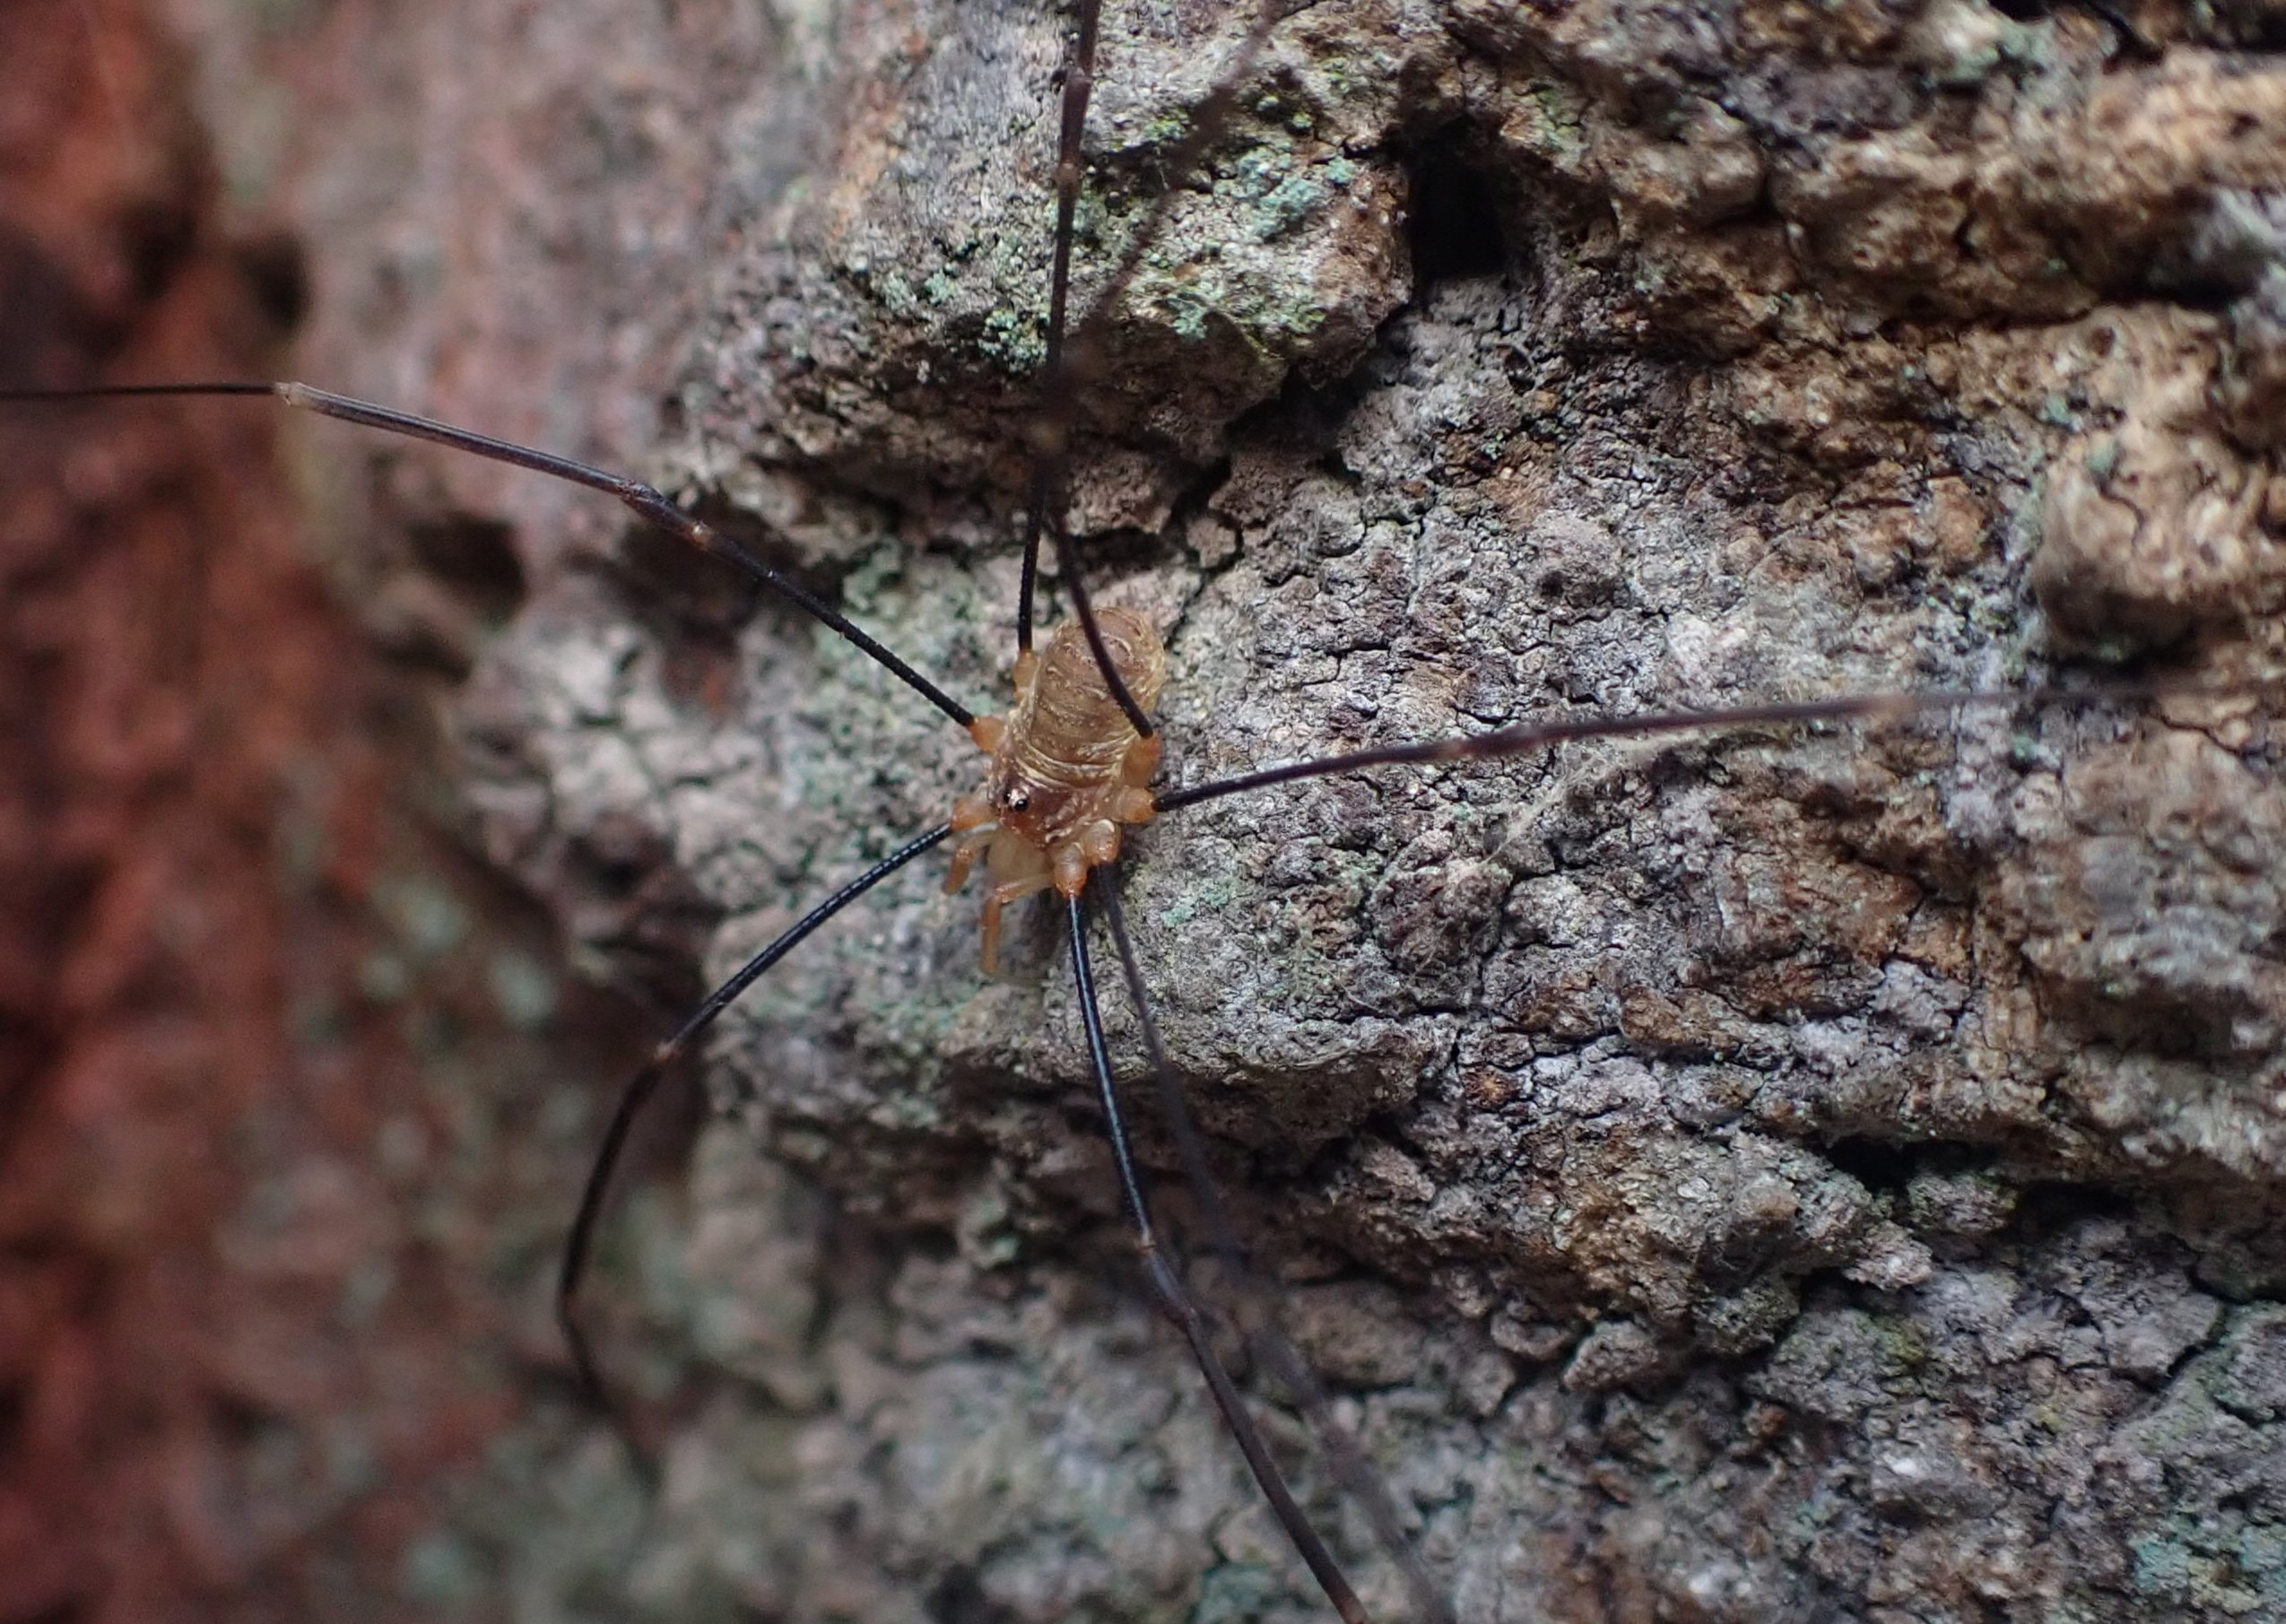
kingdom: Animalia
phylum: Arthropoda
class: Arachnida
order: Opiliones
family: Phalangiidae
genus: Opilio
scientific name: Opilio canestrinii
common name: Orange vægmejer
